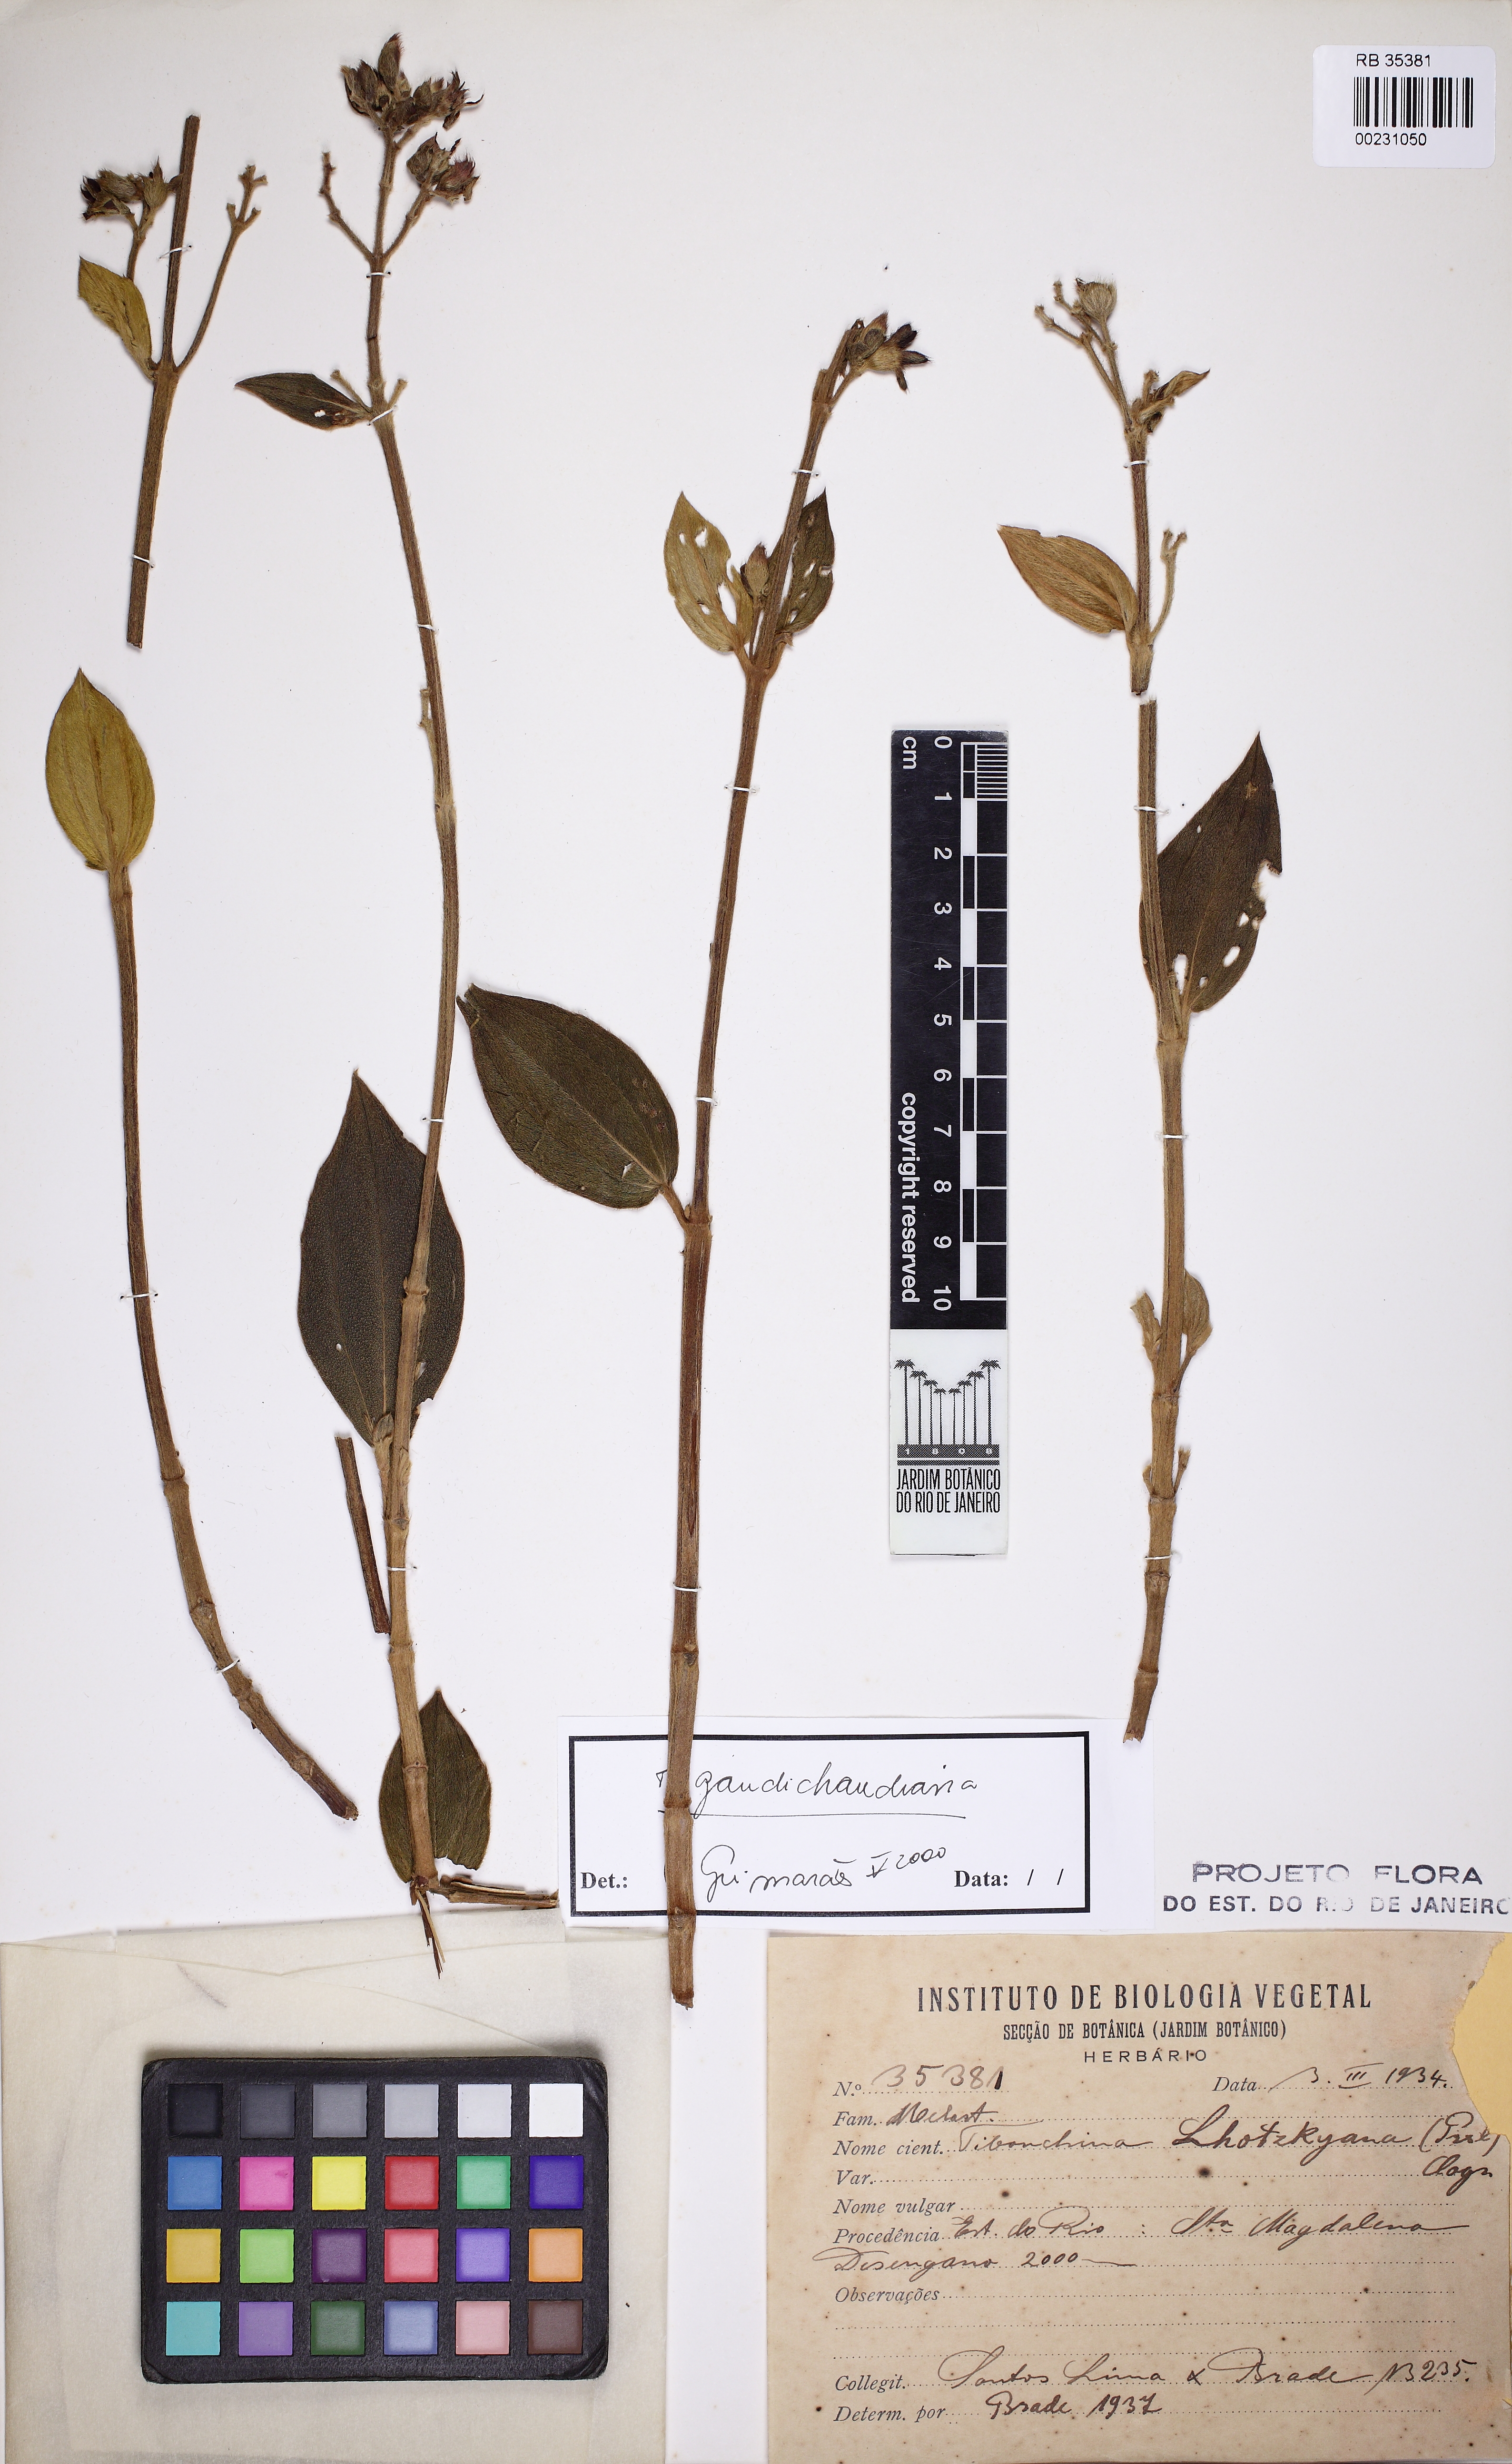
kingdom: Plantae
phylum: Tracheophyta
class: Magnoliopsida
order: Myrtales
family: Melastomataceae
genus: Chaetogastra
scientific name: Chaetogastra longifolia
